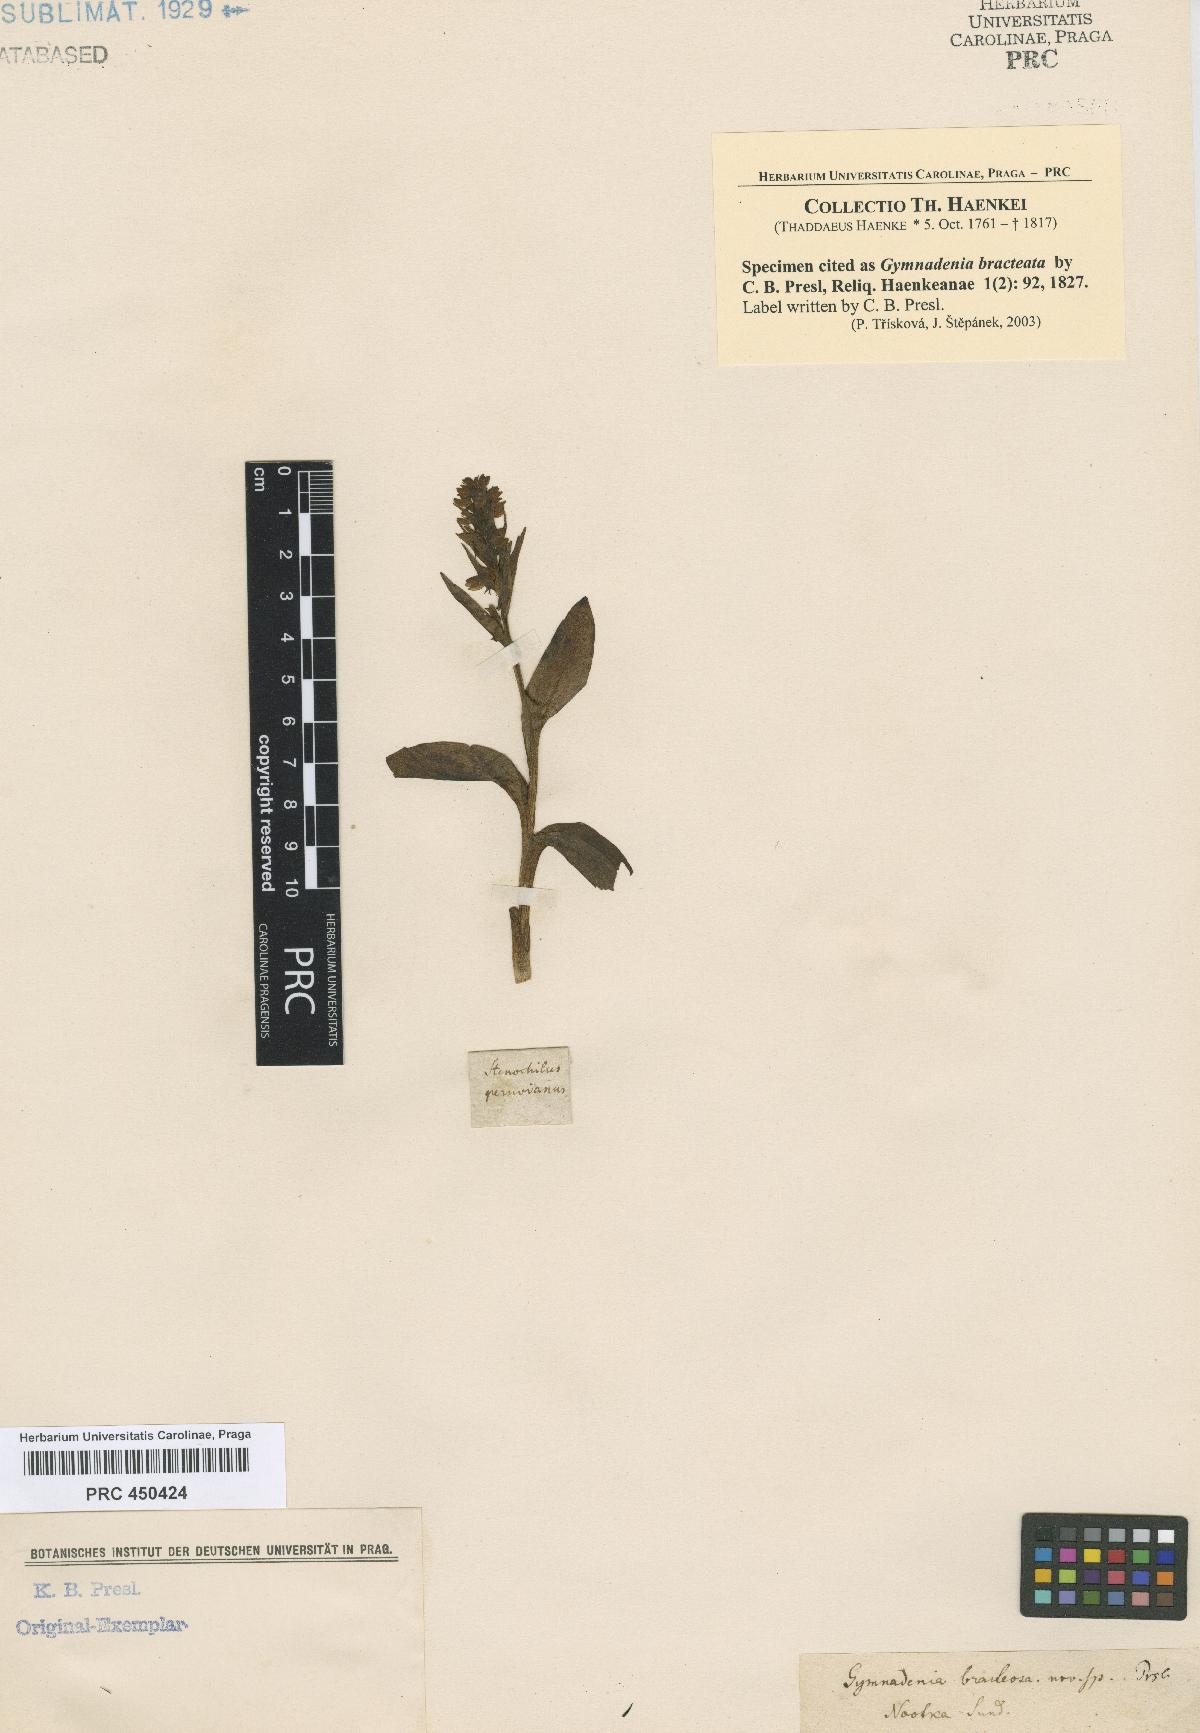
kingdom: Plantae
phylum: Tracheophyta
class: Liliopsida
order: Asparagales
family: Orchidaceae
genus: Dactylorhiza
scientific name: Dactylorhiza viridis
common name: Longbract frog orchid
